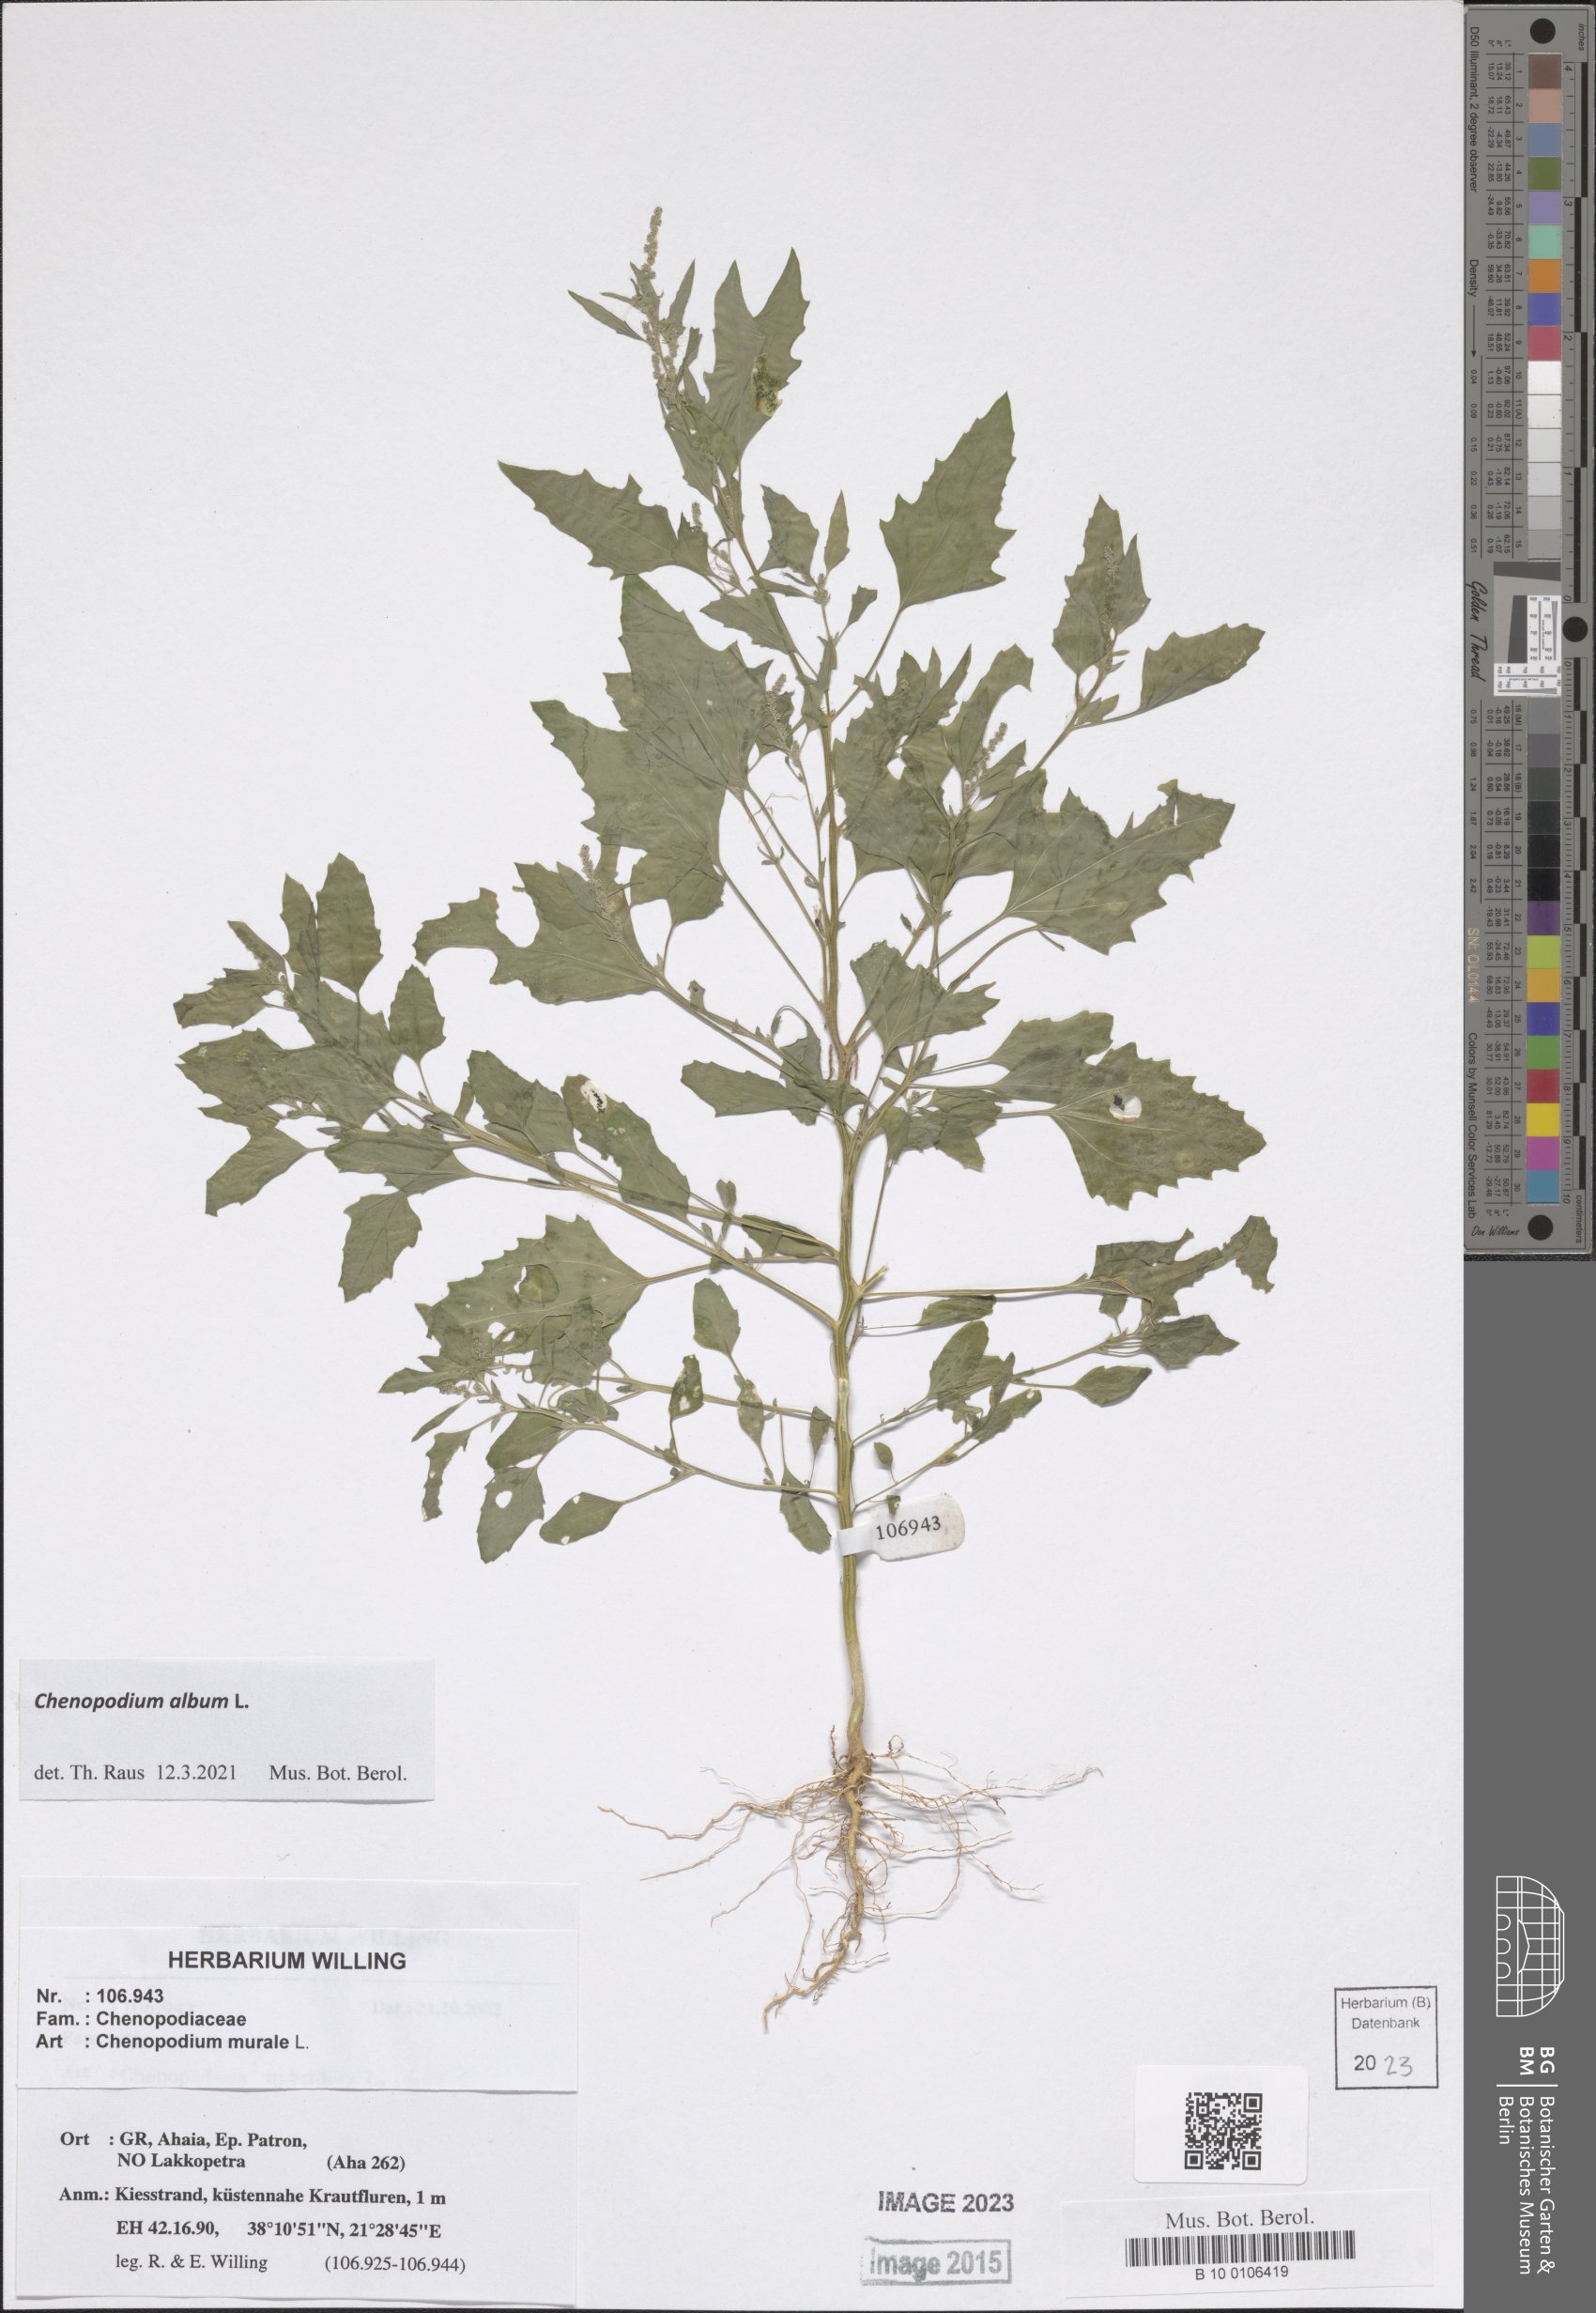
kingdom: Plantae
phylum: Tracheophyta
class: Magnoliopsida
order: Caryophyllales
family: Amaranthaceae
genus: Chenopodium
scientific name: Chenopodium album
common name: Fat-hen
